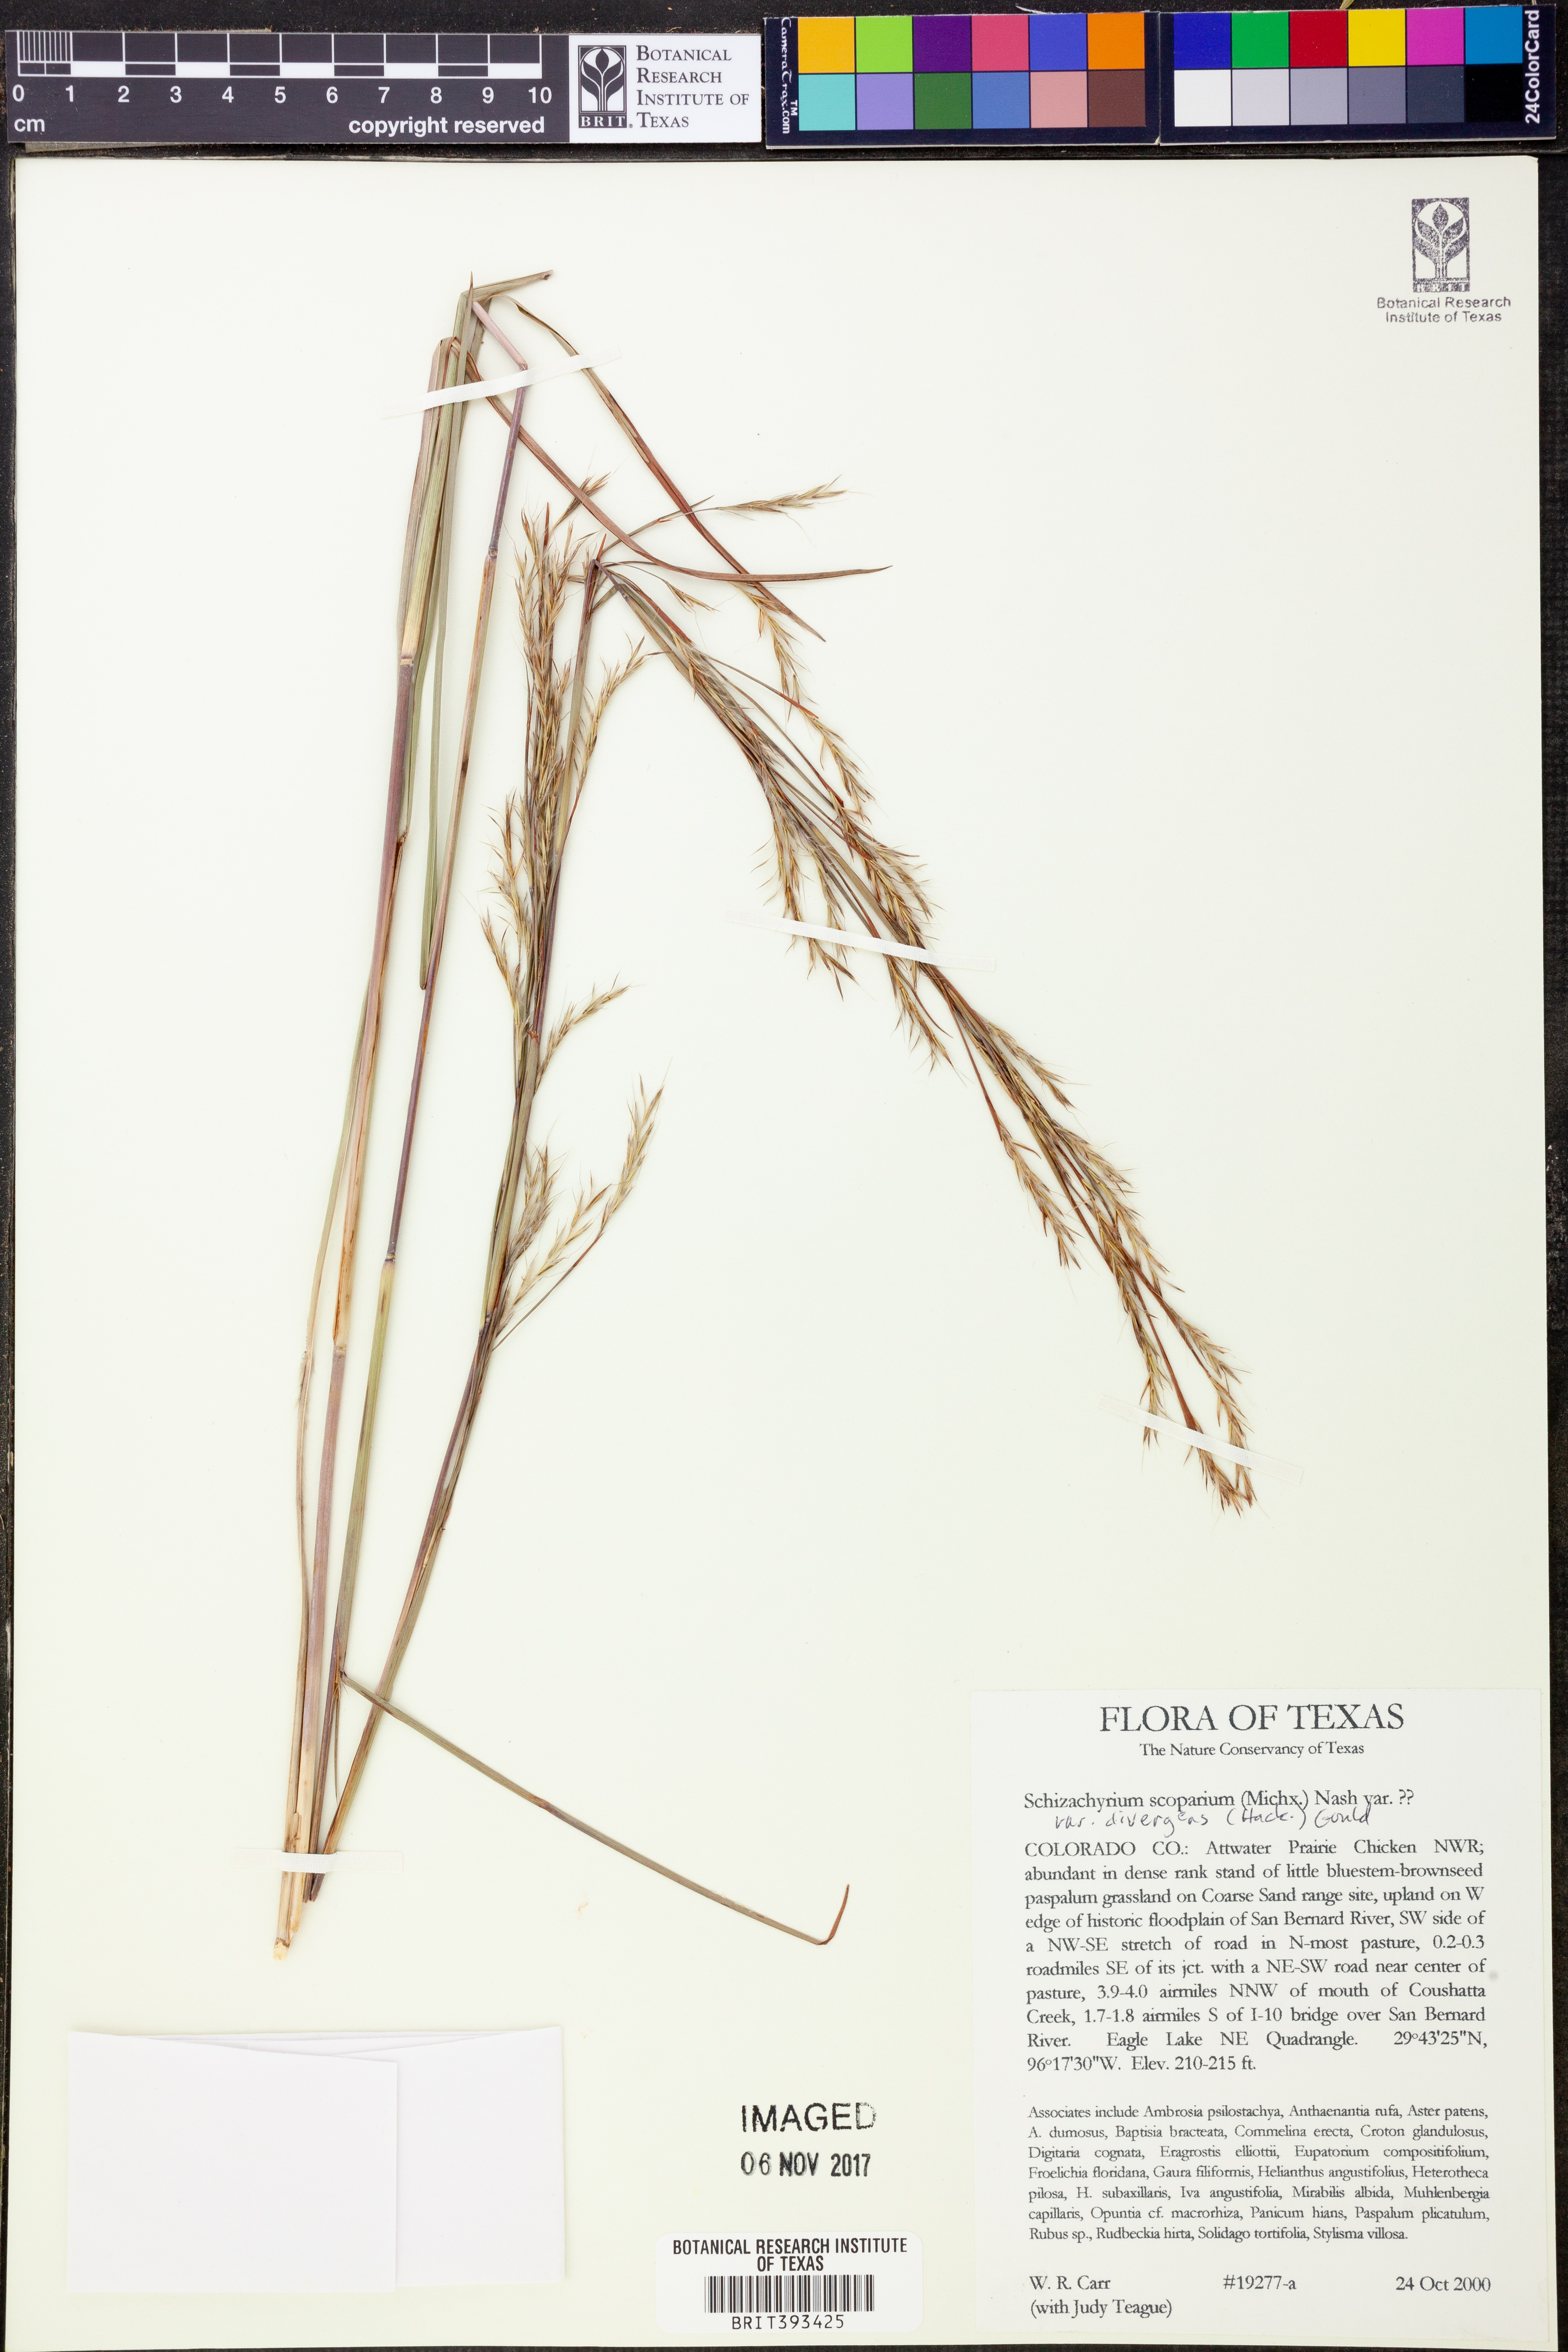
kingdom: Plantae
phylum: Tracheophyta
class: Liliopsida
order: Poales
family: Poaceae
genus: Schizachyrium
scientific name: Schizachyrium scoparium
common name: Little bluestem
